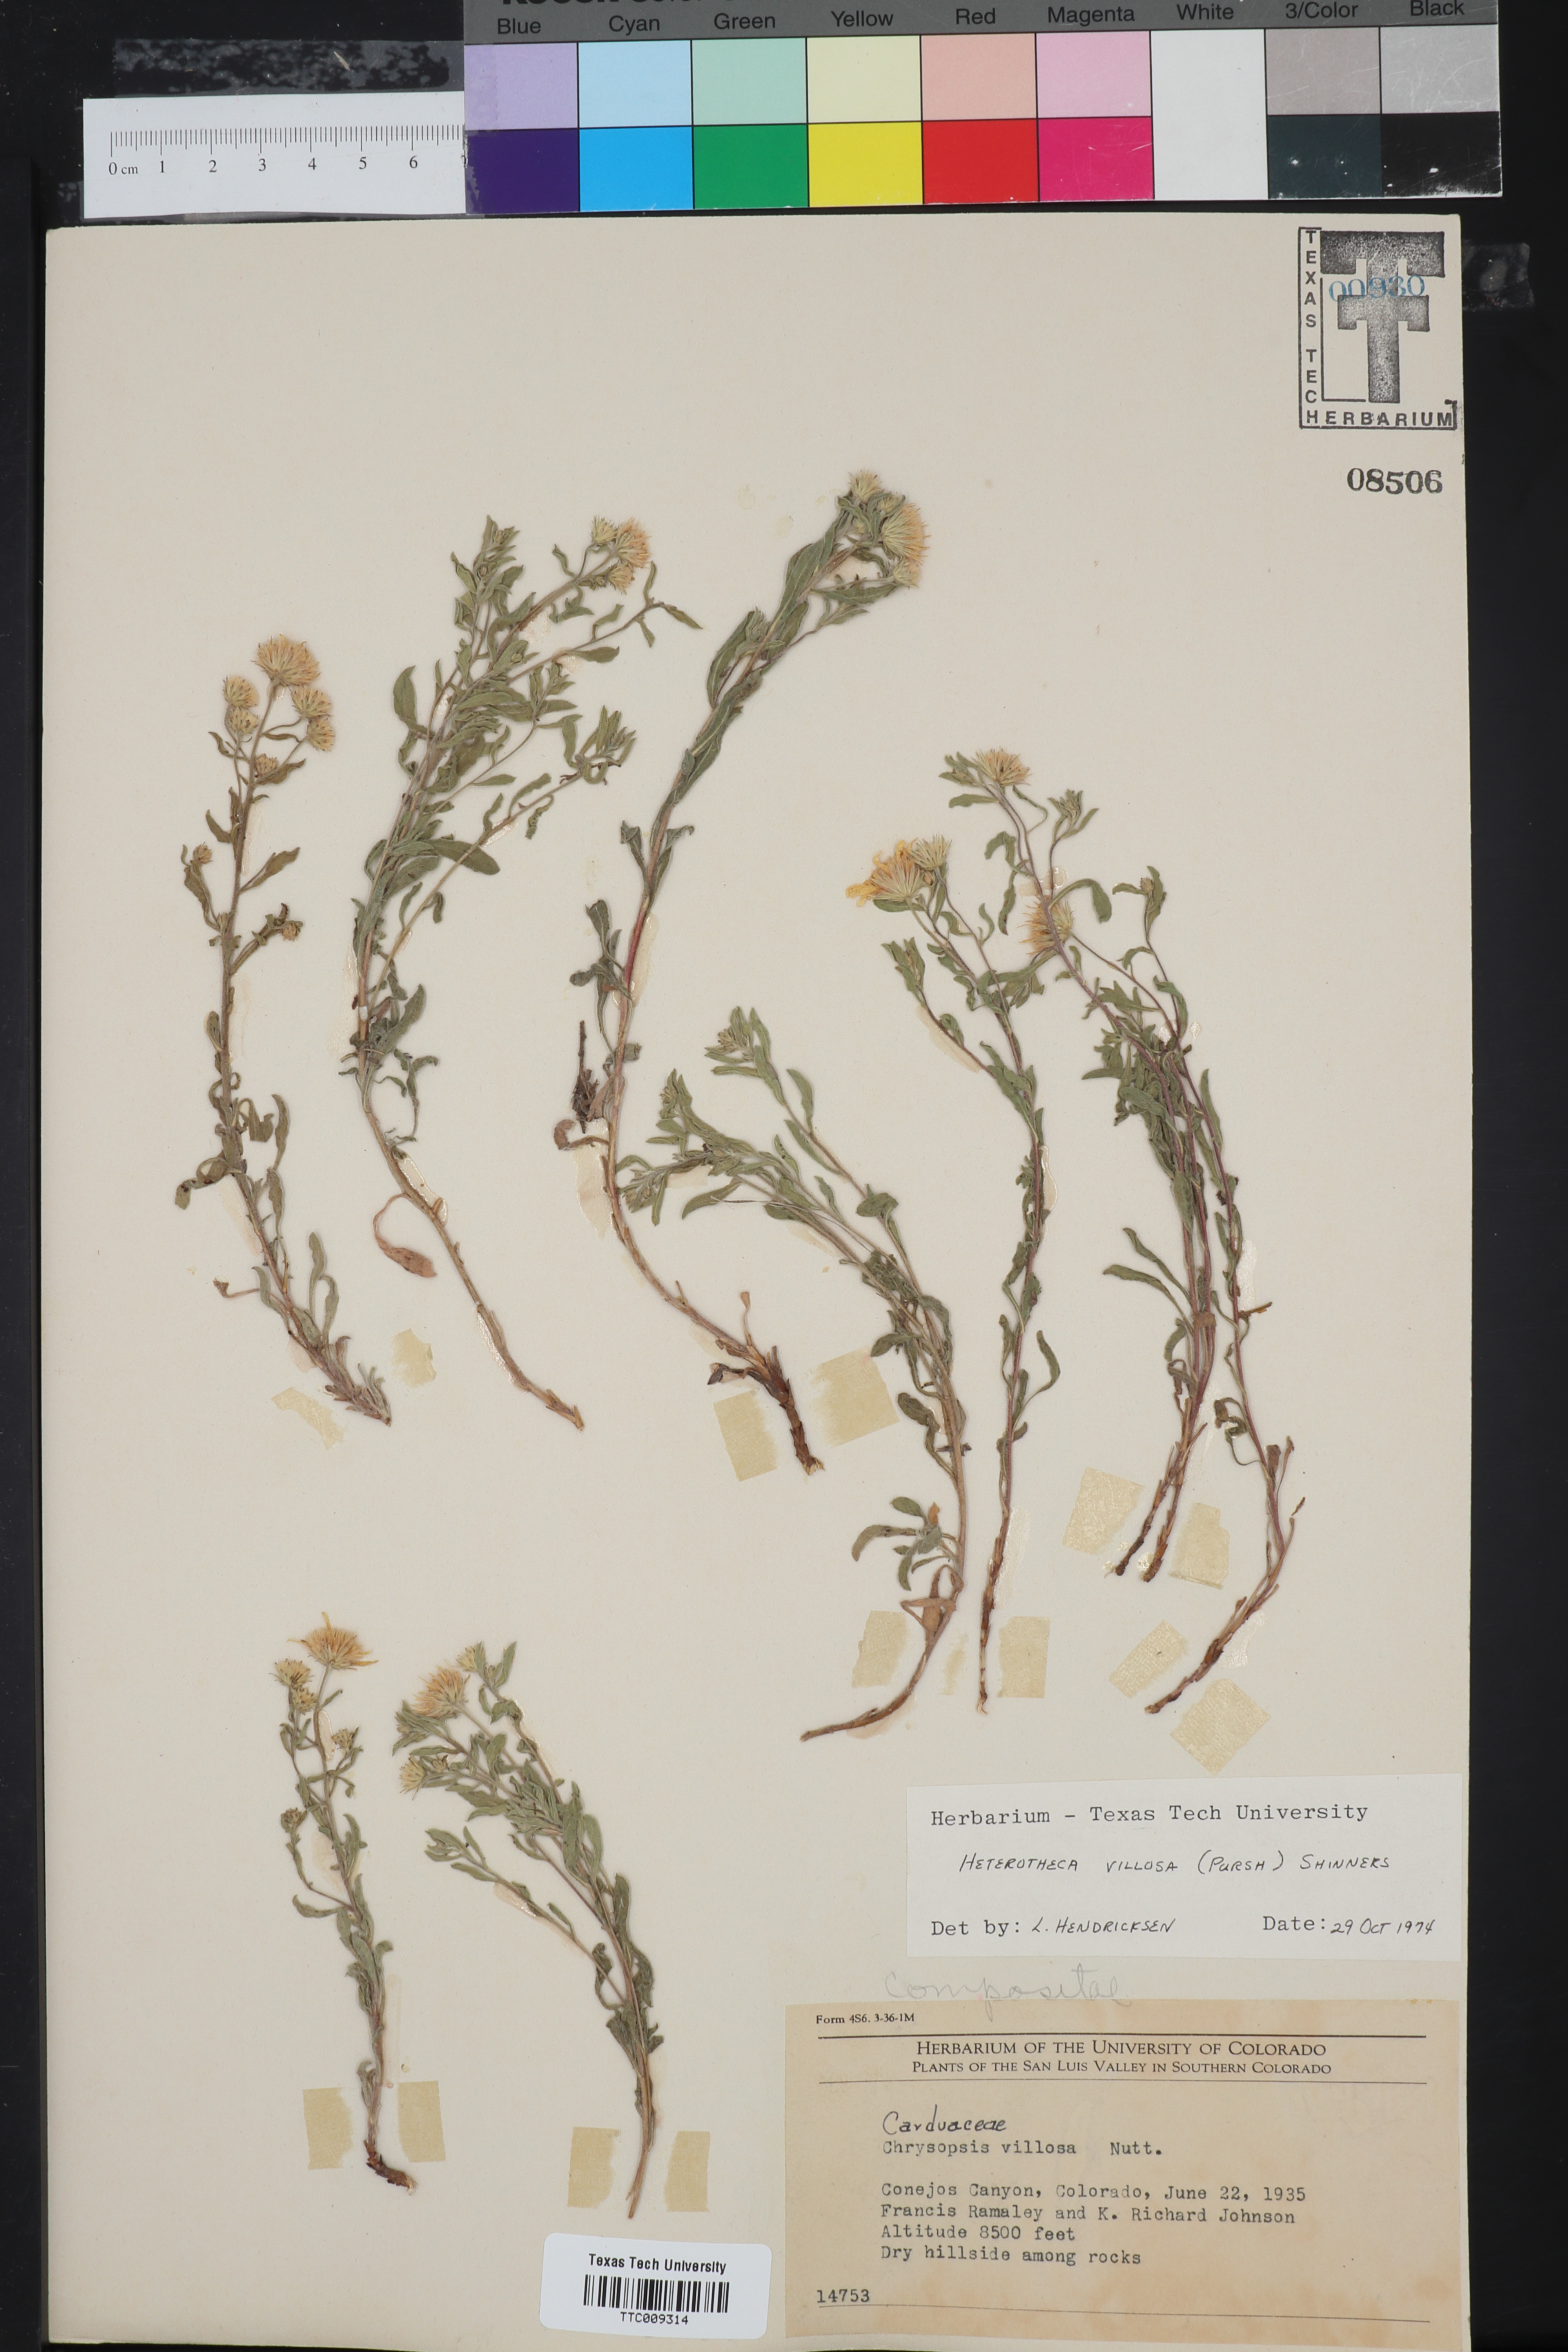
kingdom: Plantae
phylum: Tracheophyta
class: Magnoliopsida
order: Asterales
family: Asteraceae
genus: Heterotheca
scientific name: Heterotheca villosa
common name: Hairy false goldenaster
